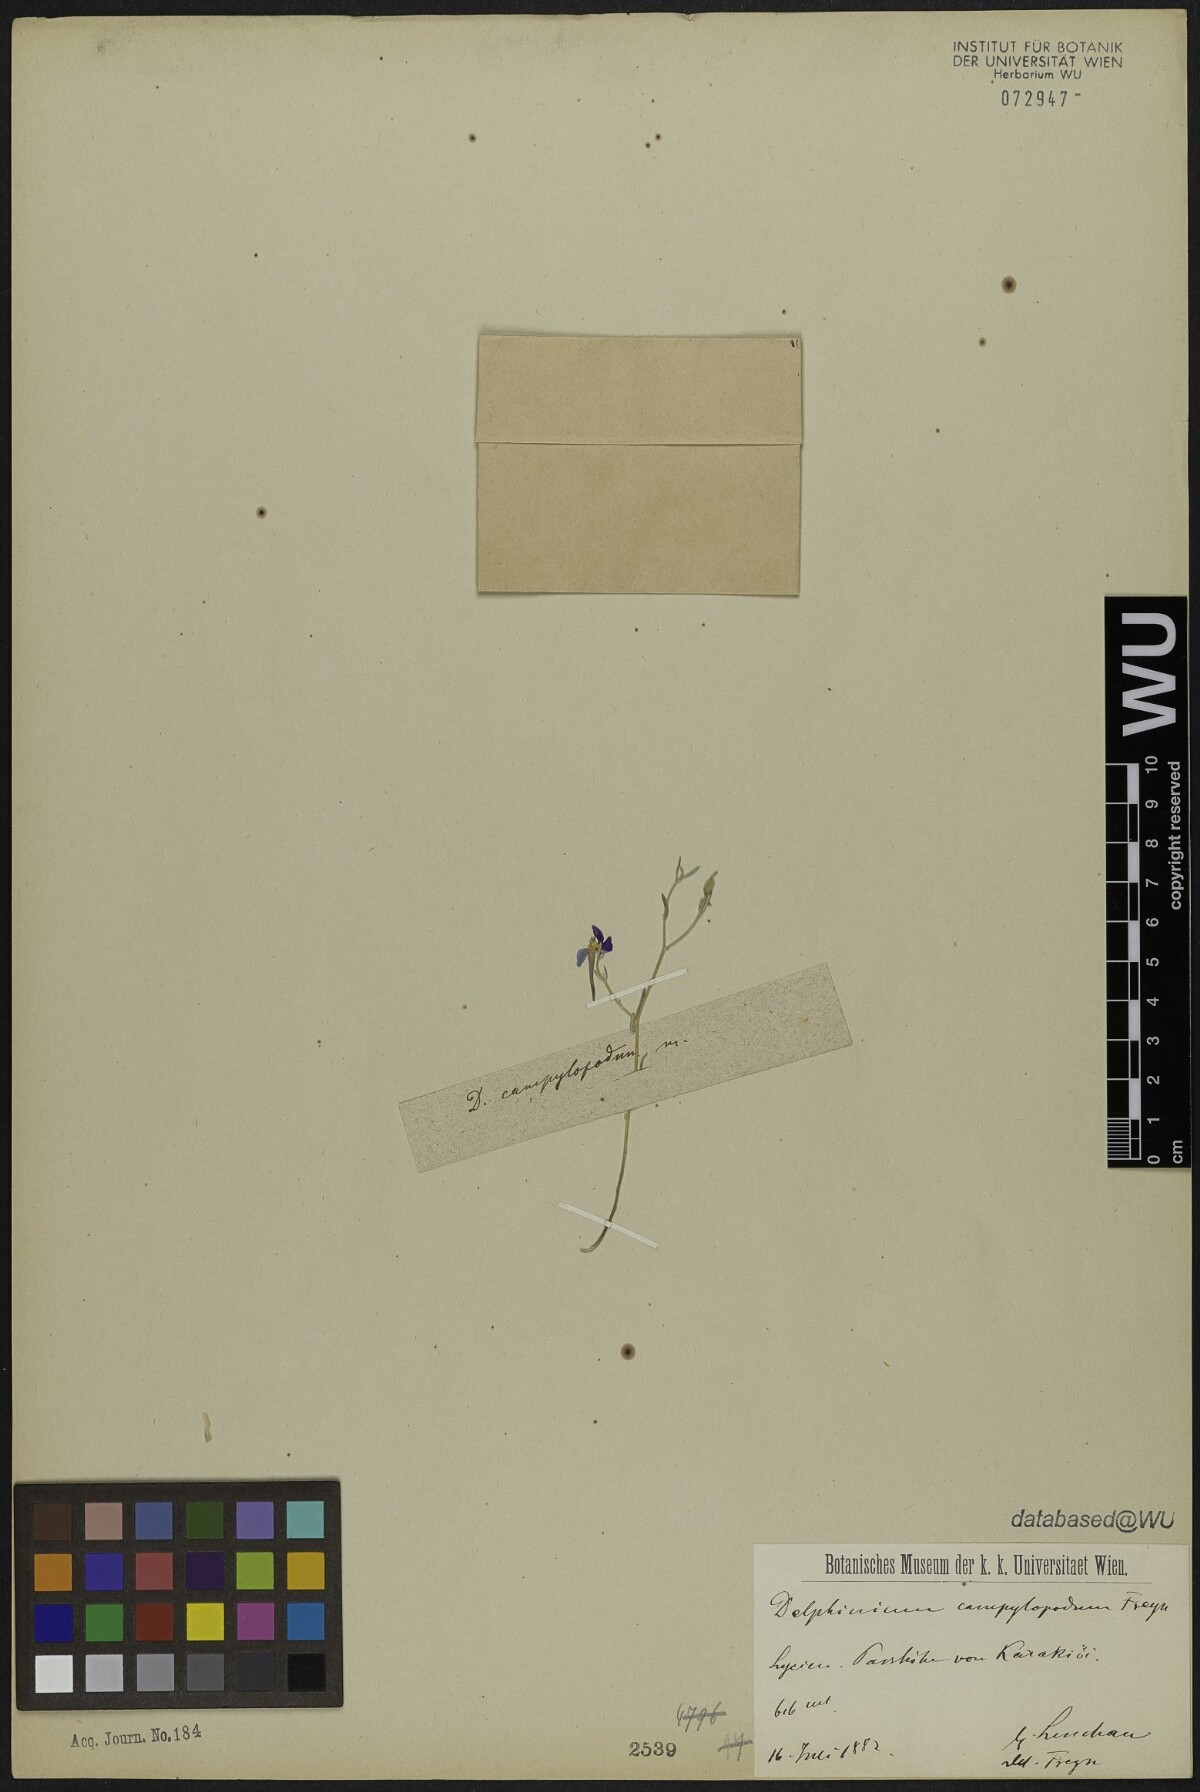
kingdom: Plantae
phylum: Tracheophyta
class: Magnoliopsida
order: Ranunculales
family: Ranunculaceae
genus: Delphinium
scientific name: Delphinium hellesponticum
